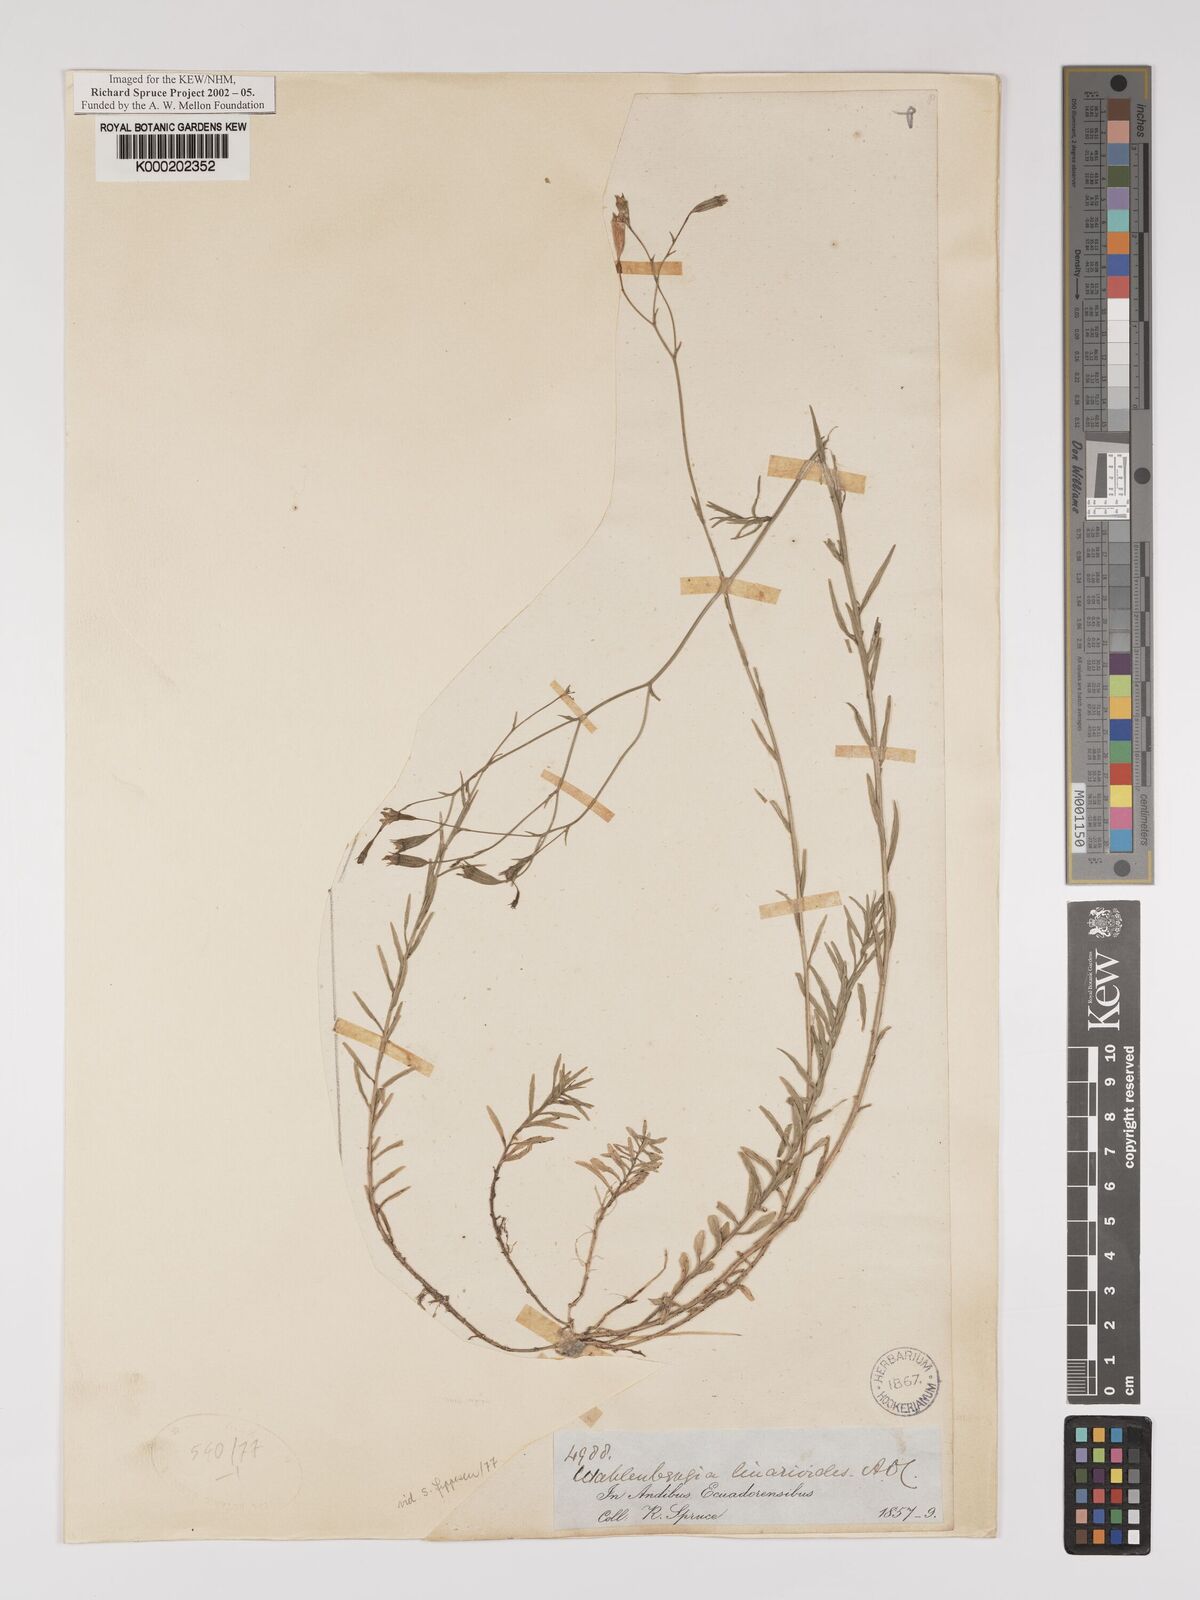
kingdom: Plantae
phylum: Tracheophyta
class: Magnoliopsida
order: Asterales
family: Campanulaceae
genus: Wahlenbergia
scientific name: Wahlenbergia linarioides
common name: Tuffybells
